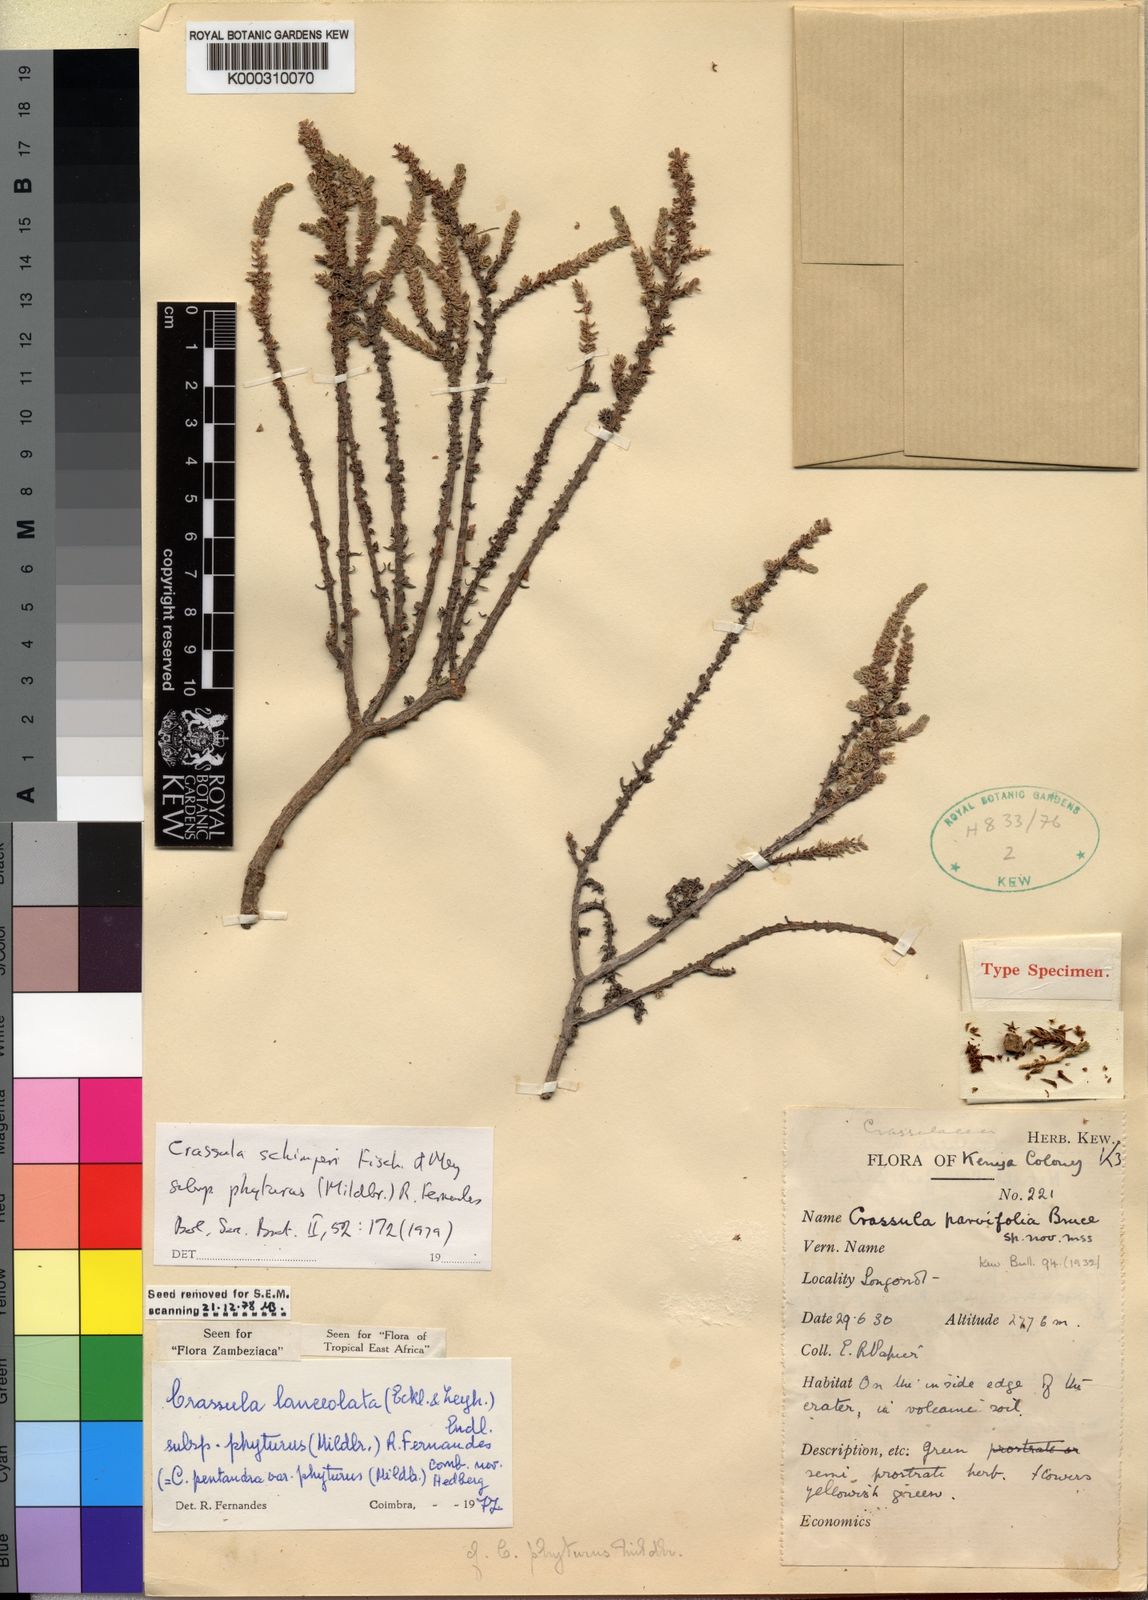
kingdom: Plantae
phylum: Tracheophyta
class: Magnoliopsida
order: Saxifragales
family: Crassulaceae
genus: Crassula
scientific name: Crassula schimperi
